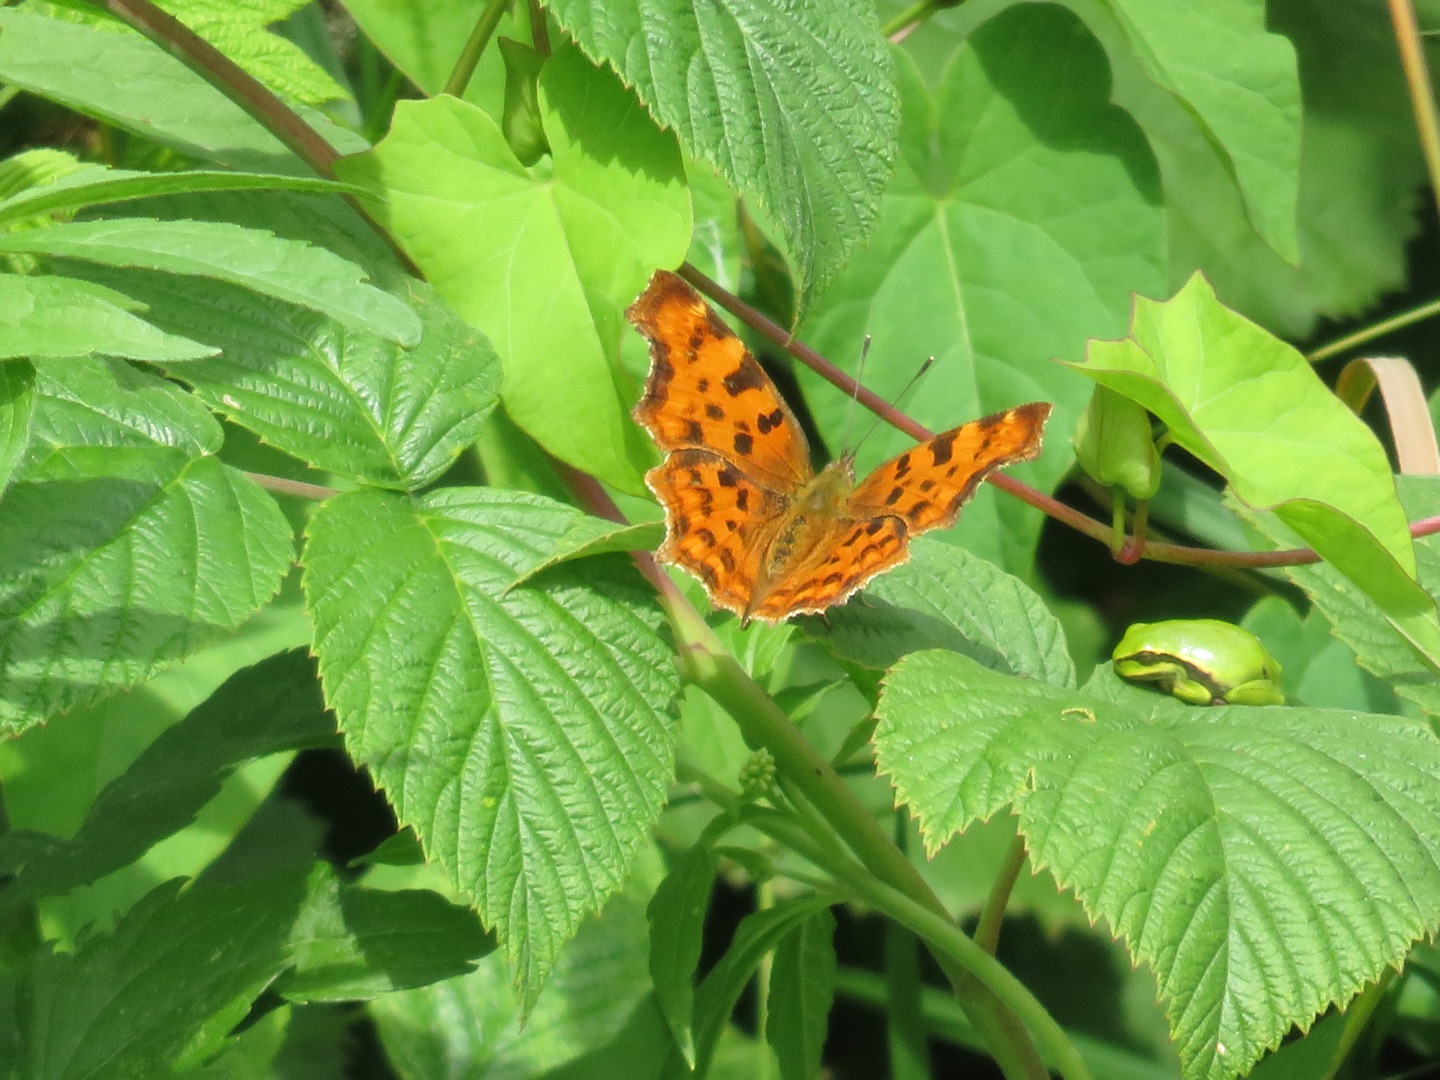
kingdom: Animalia
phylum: Arthropoda
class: Insecta
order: Lepidoptera
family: Nymphalidae
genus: Polygonia
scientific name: Polygonia c-album
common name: Det hvide C
